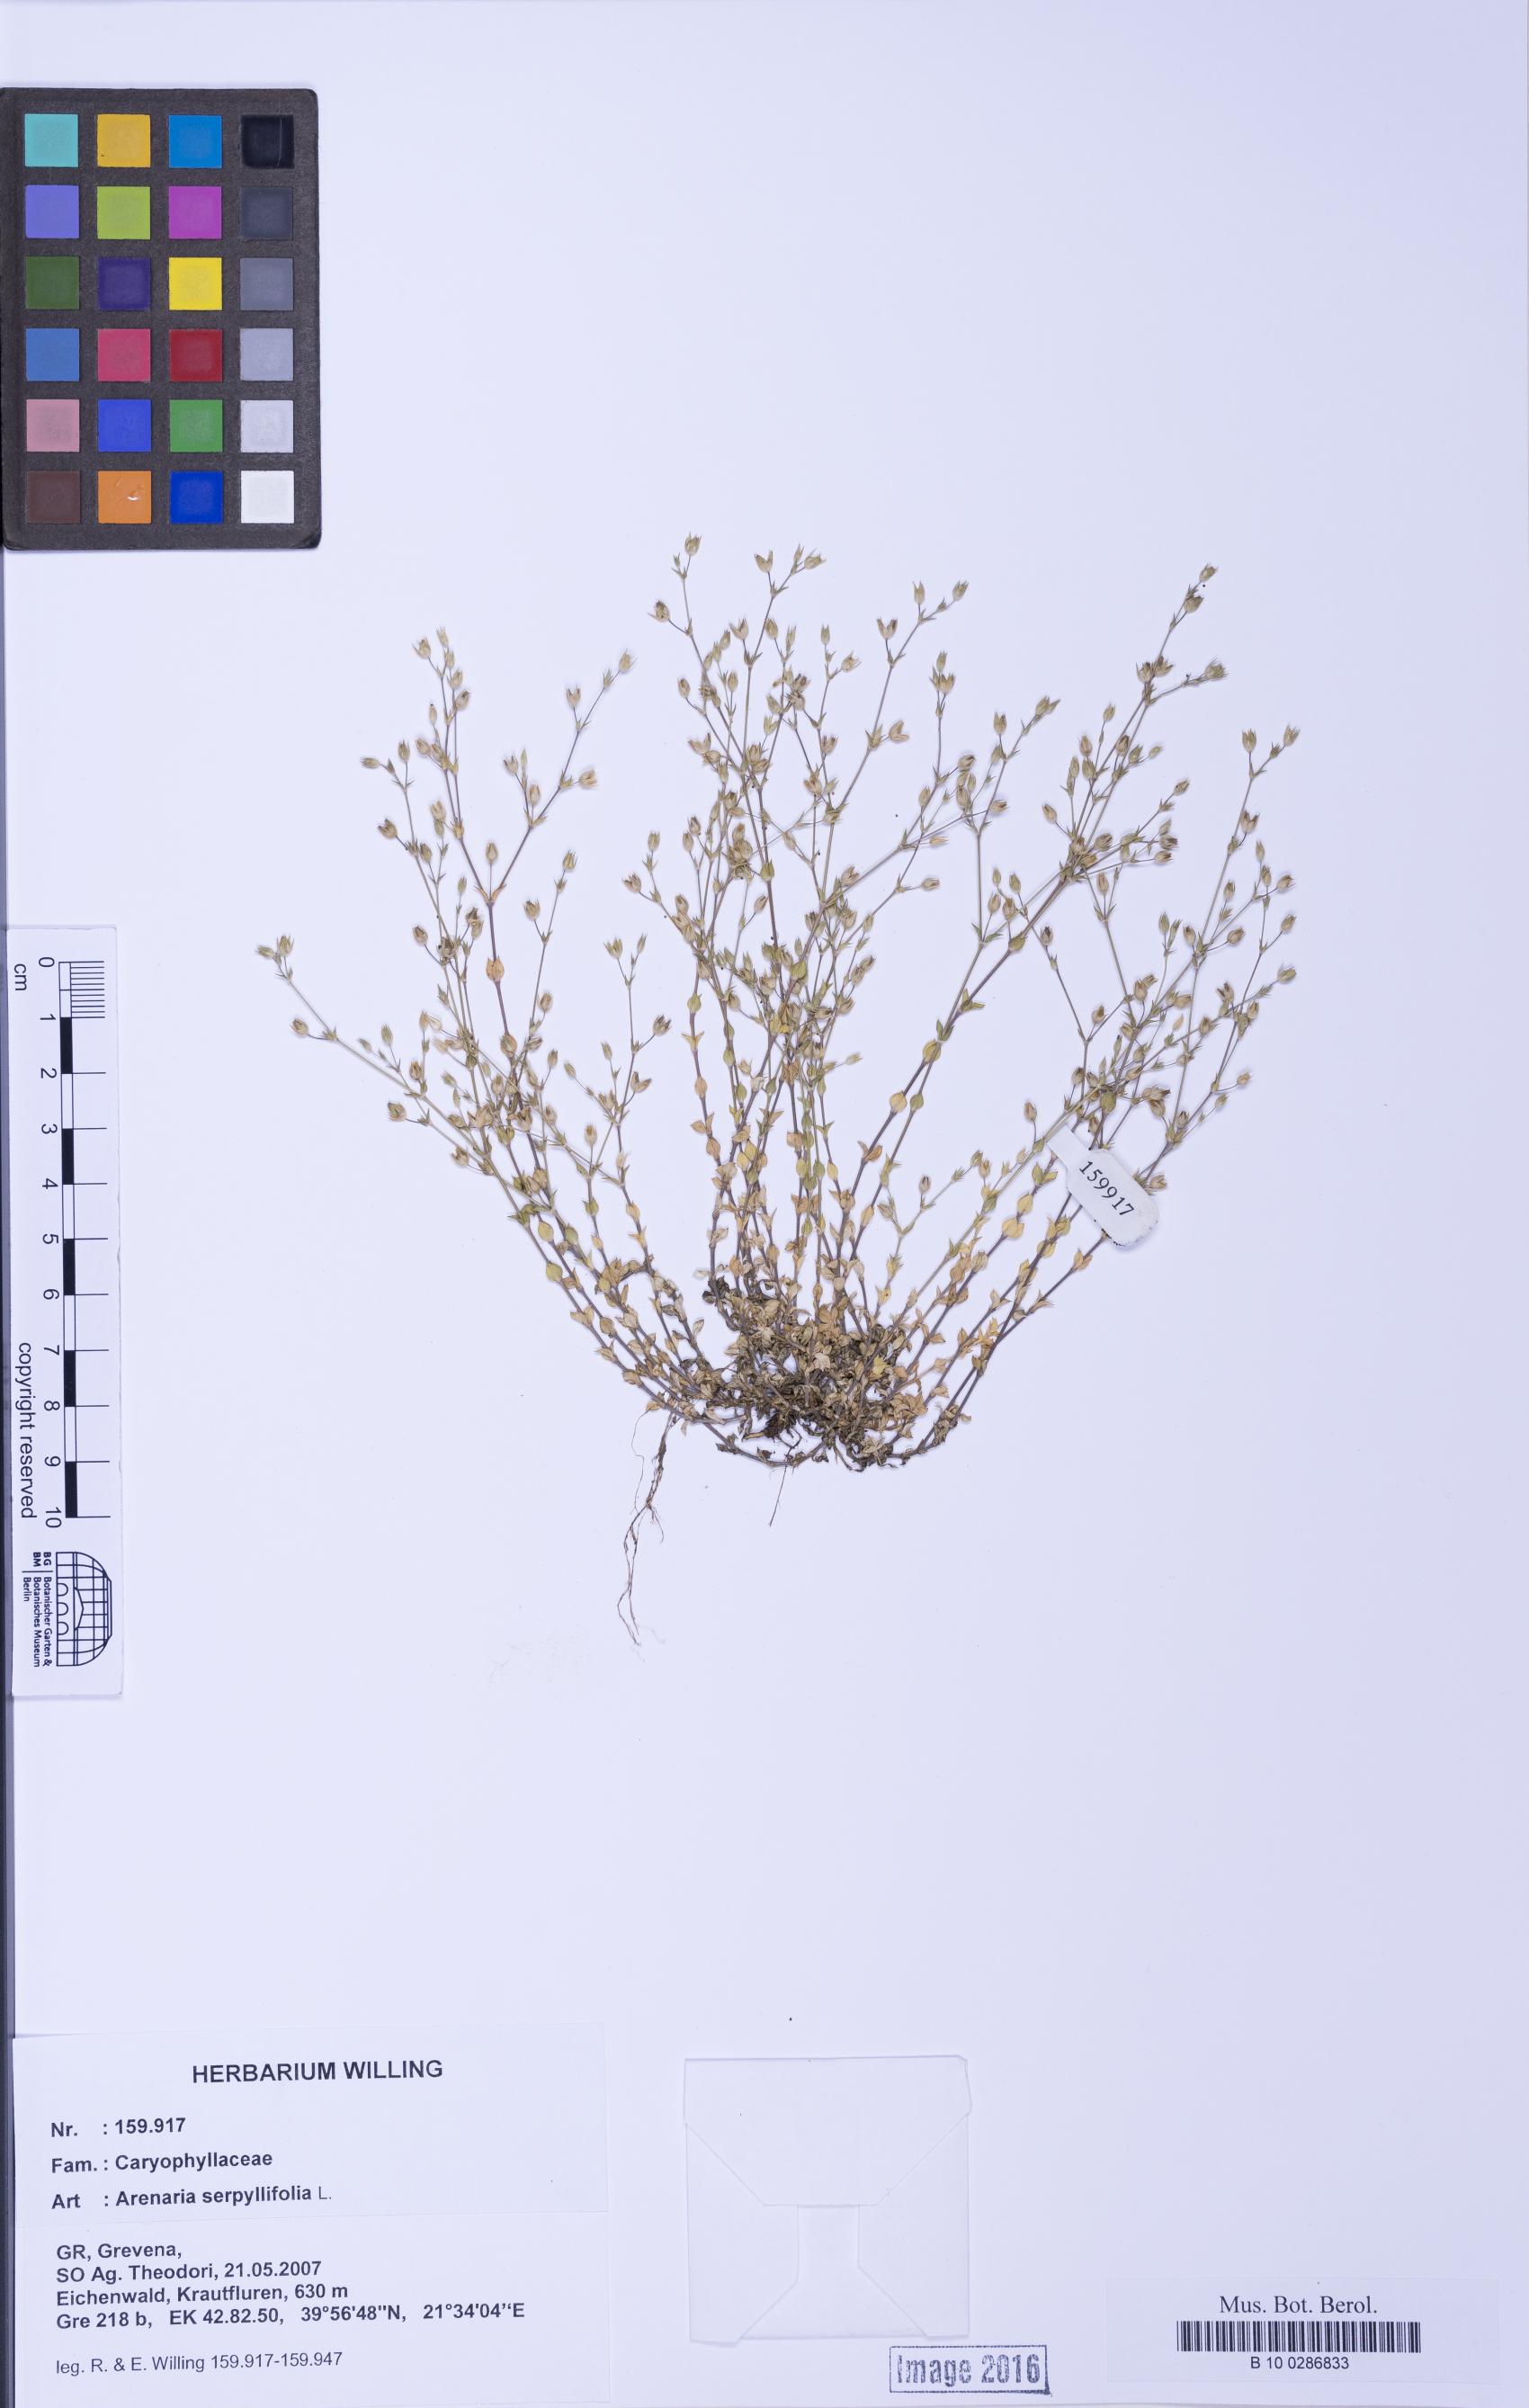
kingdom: Plantae
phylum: Tracheophyta
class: Magnoliopsida
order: Caryophyllales
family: Caryophyllaceae
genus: Arenaria
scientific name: Arenaria serpyllifolia
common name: Thyme-leaved sandwort
